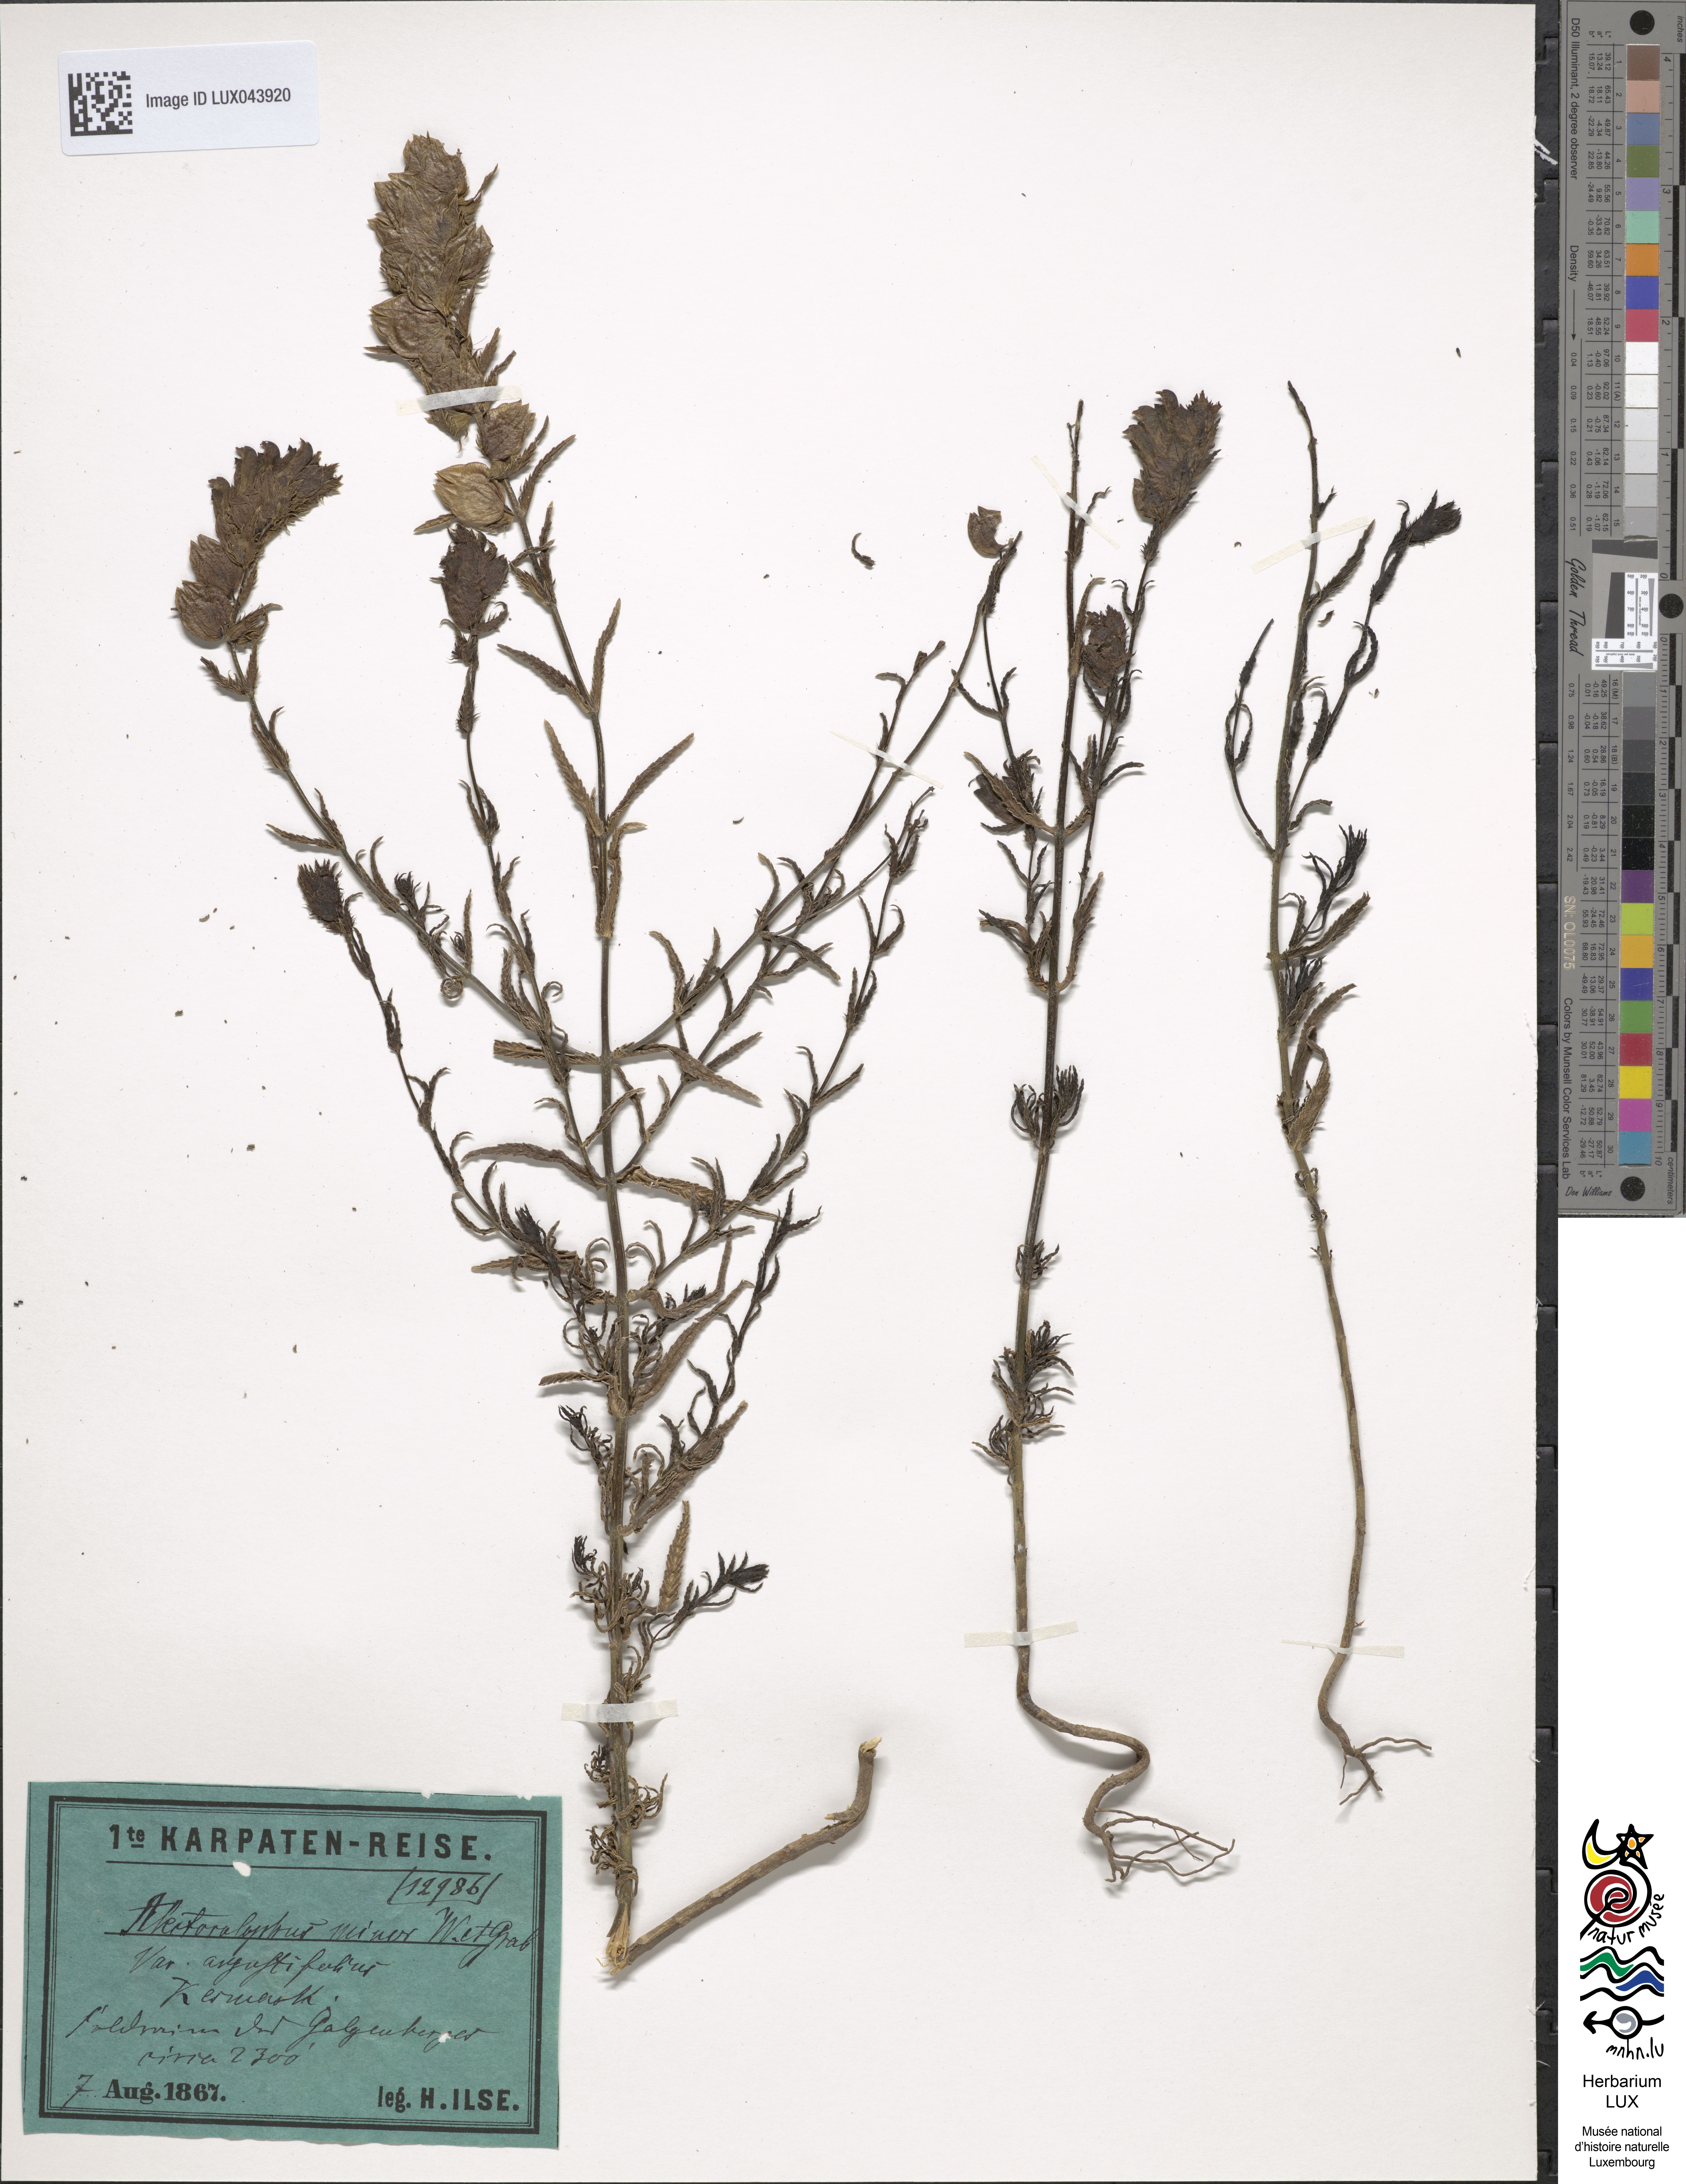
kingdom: Plantae
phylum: Tracheophyta
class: Magnoliopsida
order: Lamiales
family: Orobanchaceae
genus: Rhinanthus
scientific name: Rhinanthus minor
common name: Yellow-rattle
